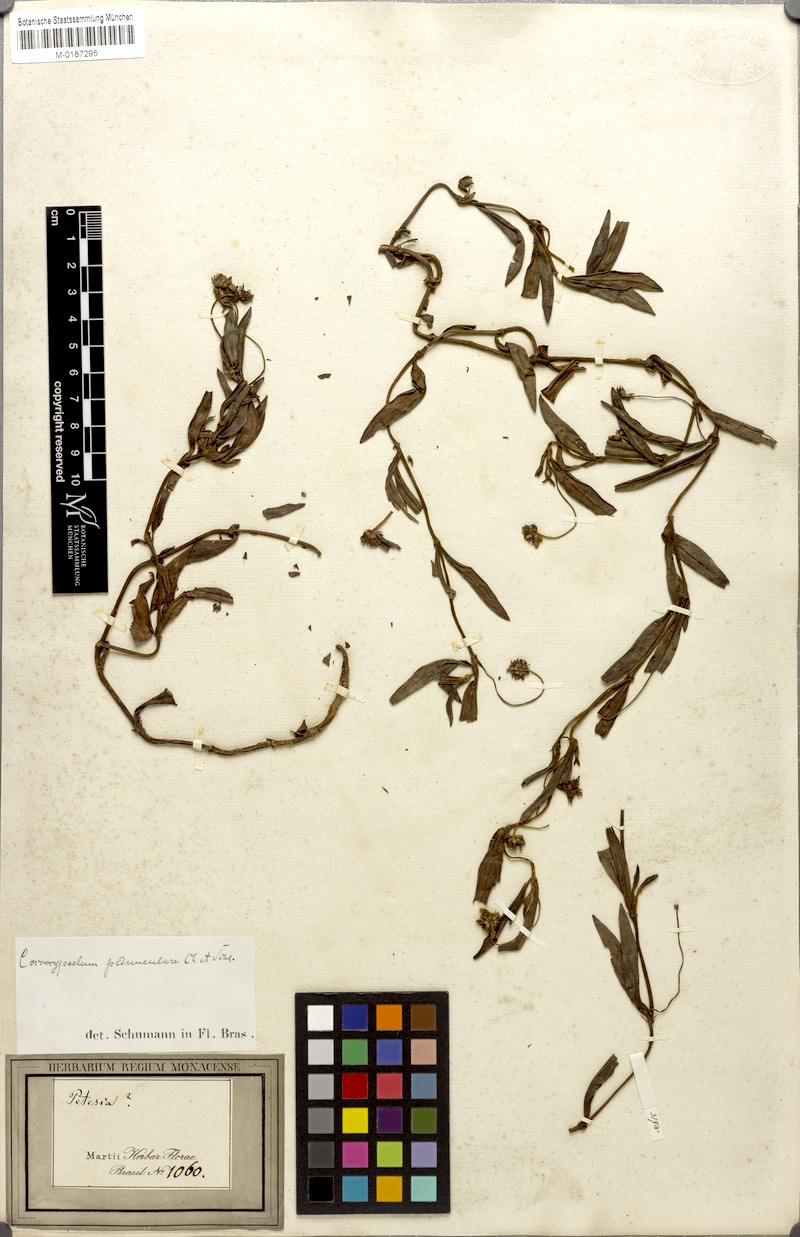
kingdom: Plantae
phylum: Tracheophyta
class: Magnoliopsida
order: Gentianales
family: Rubiaceae
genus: Coccocypselum
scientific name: Coccocypselum pedunculare
